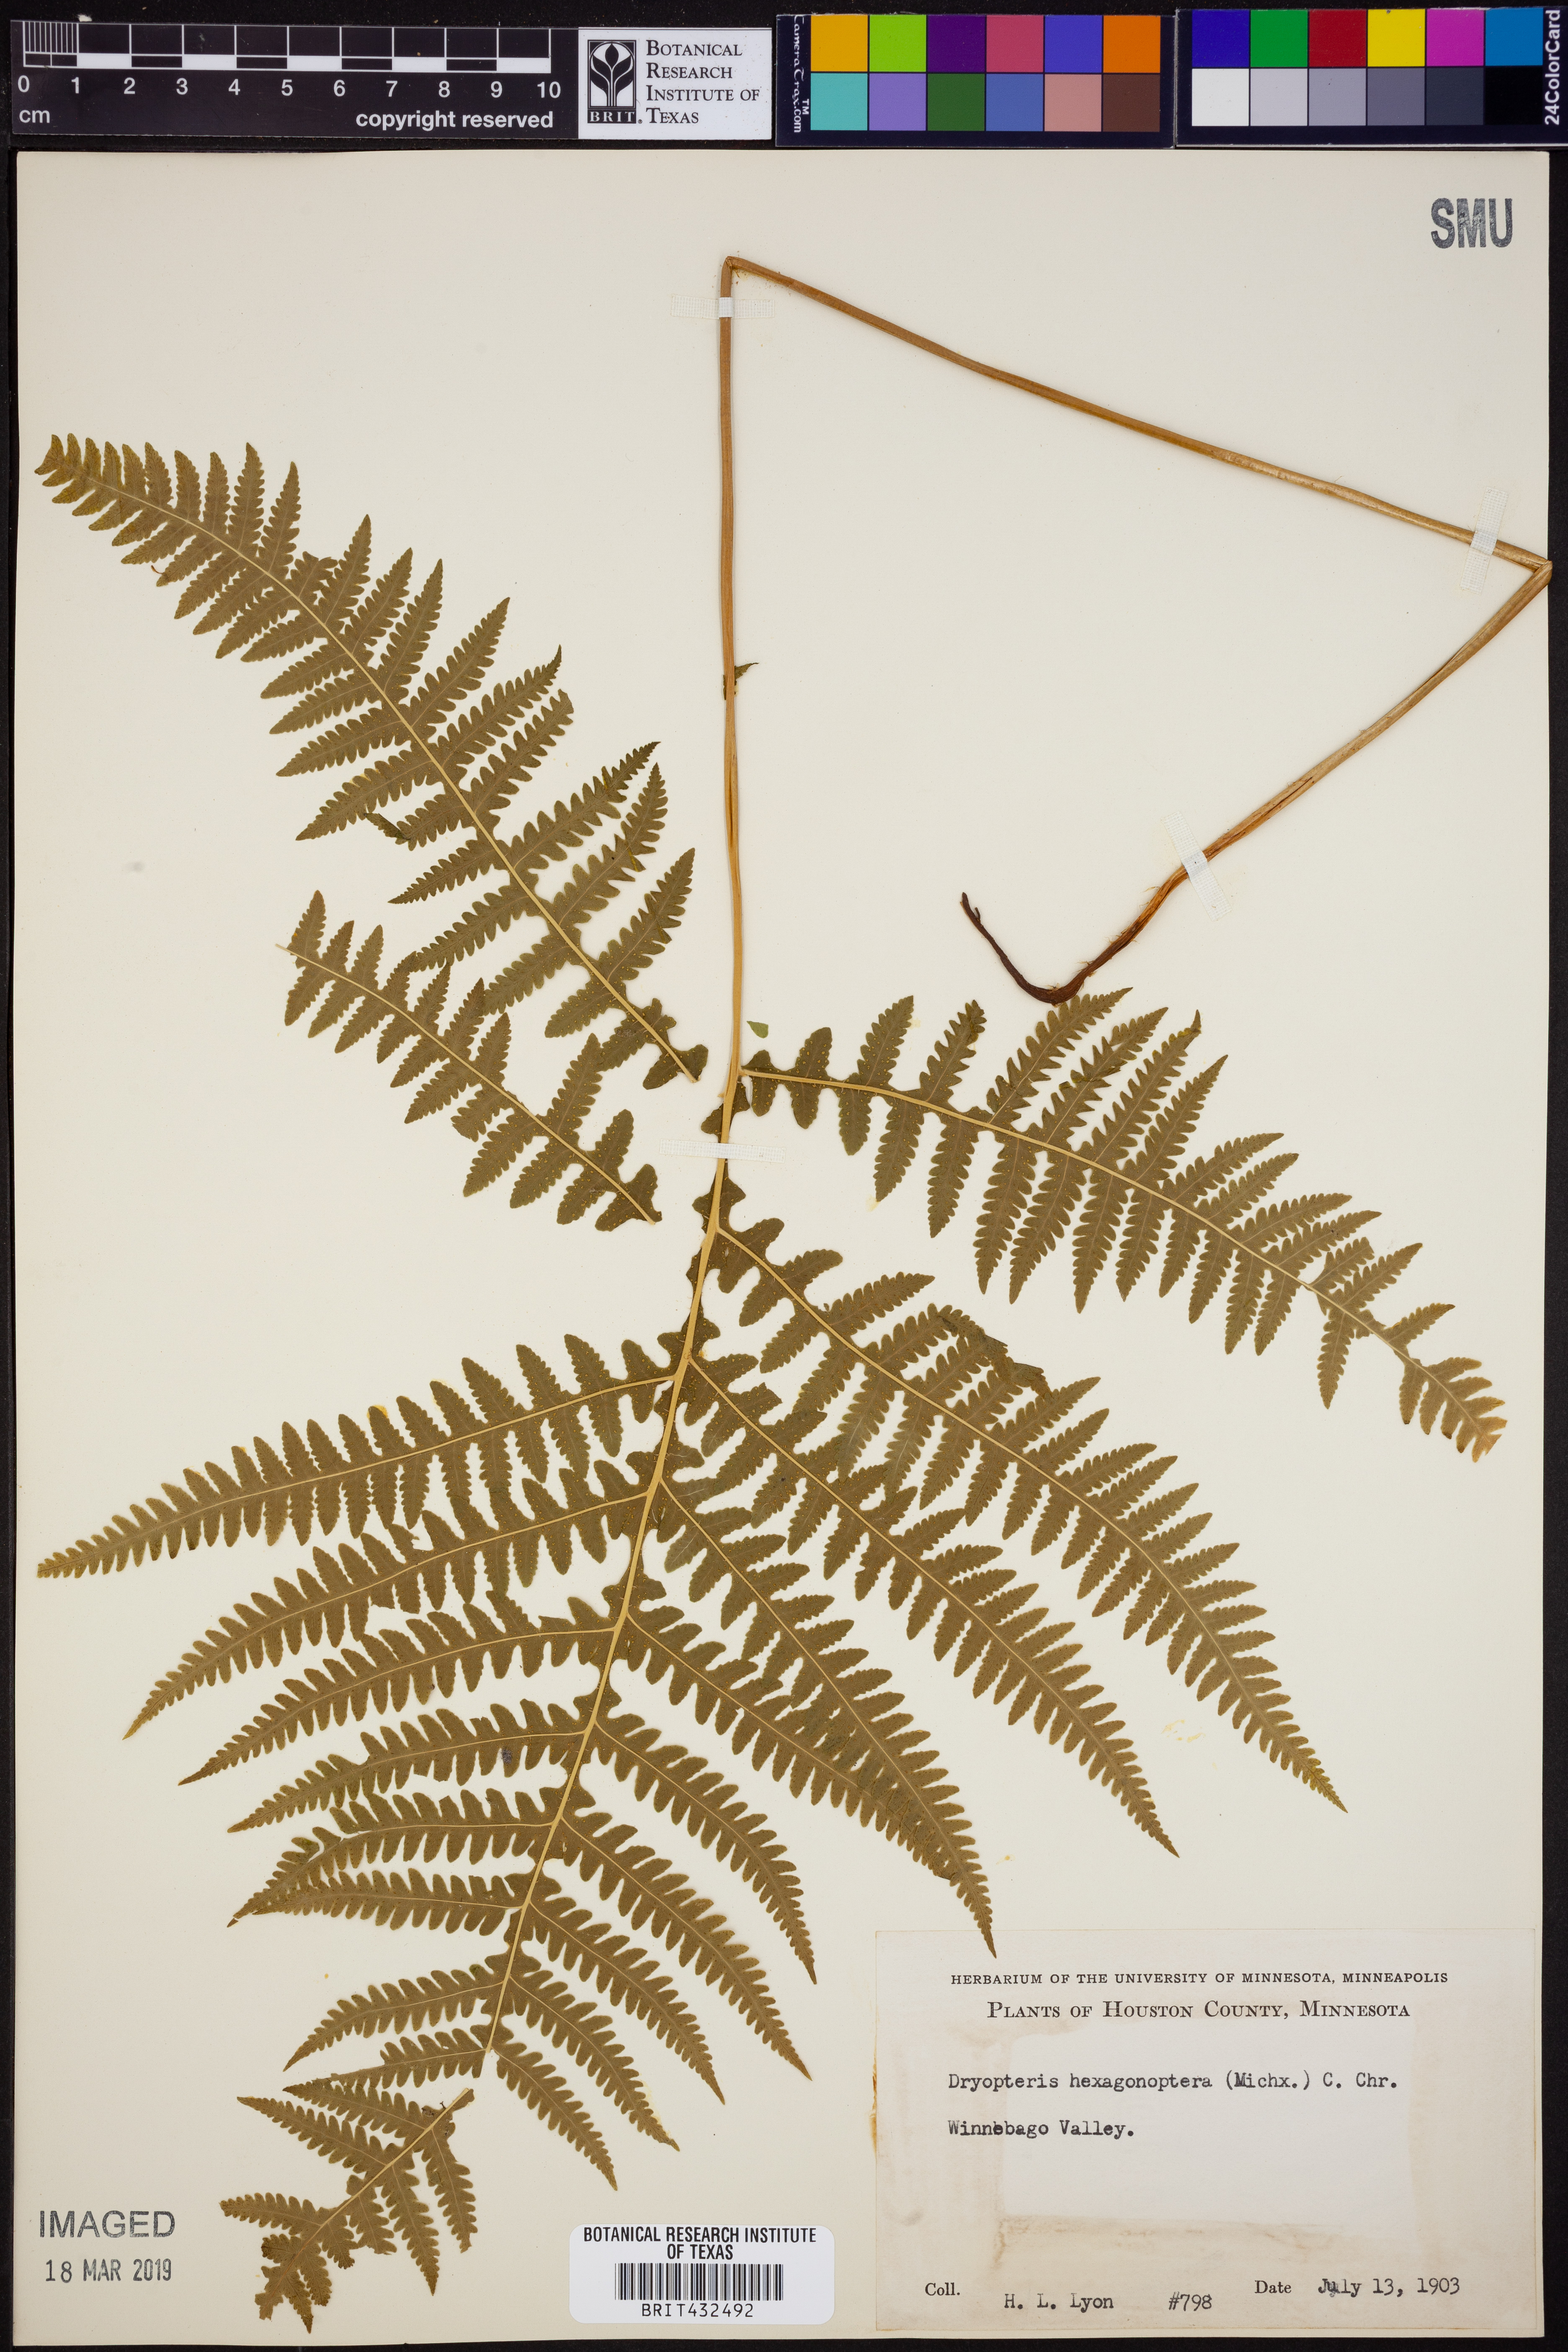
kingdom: Plantae
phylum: Tracheophyta
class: Polypodiopsida
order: Polypodiales
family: Dryopteridaceae
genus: Dryopteris
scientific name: Dryopteris hexagonaptera
